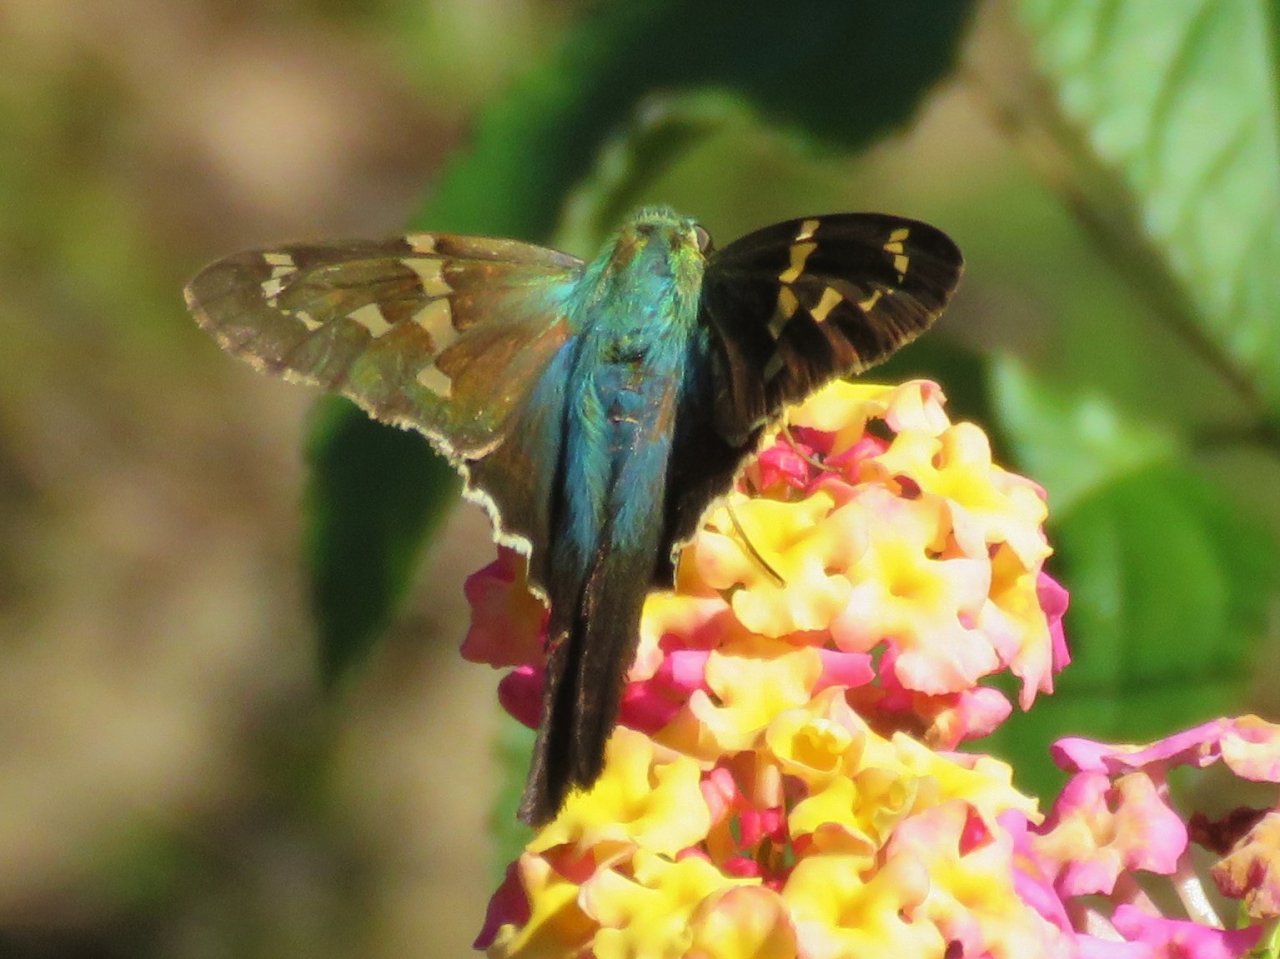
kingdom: Animalia
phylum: Arthropoda
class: Insecta
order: Lepidoptera
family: Hesperiidae
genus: Urbanus
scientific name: Urbanus proteus
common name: Long-tailed Skipper
